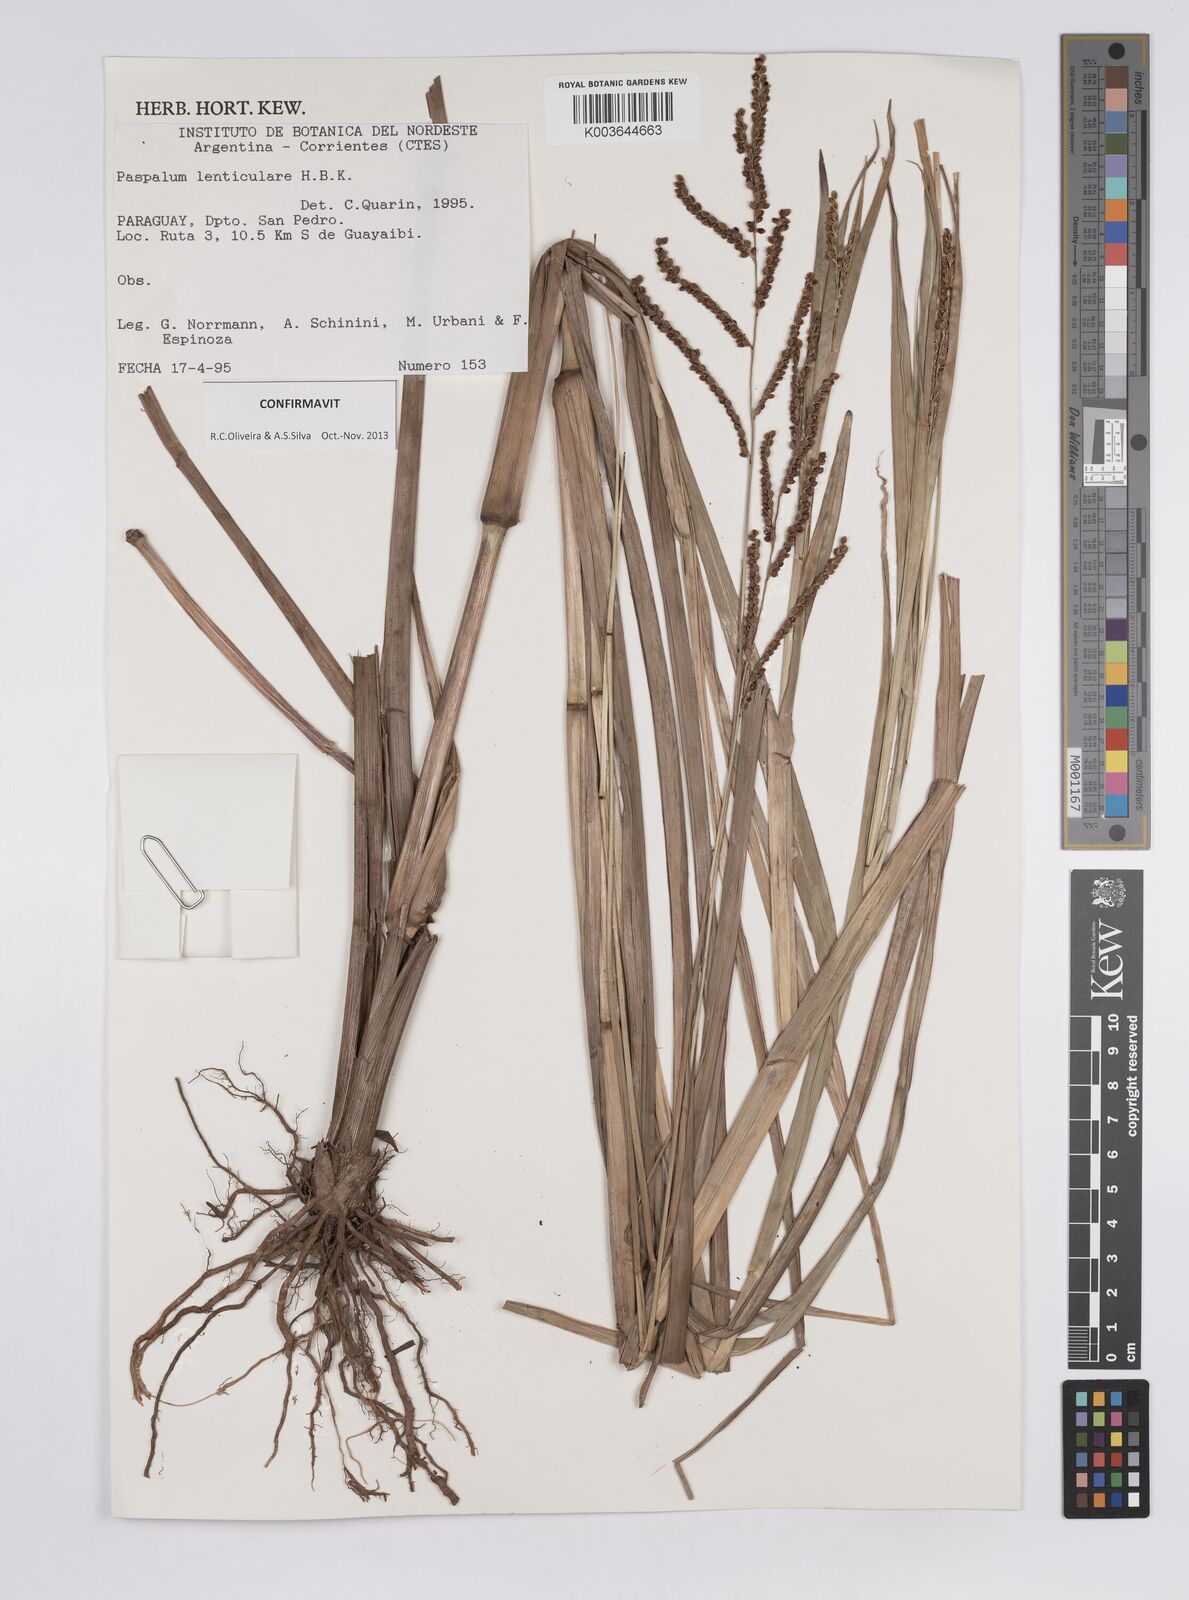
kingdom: Plantae
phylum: Tracheophyta
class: Liliopsida
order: Poales
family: Poaceae
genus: Paspalum
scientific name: Paspalum plicatulum
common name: Top paspalum
